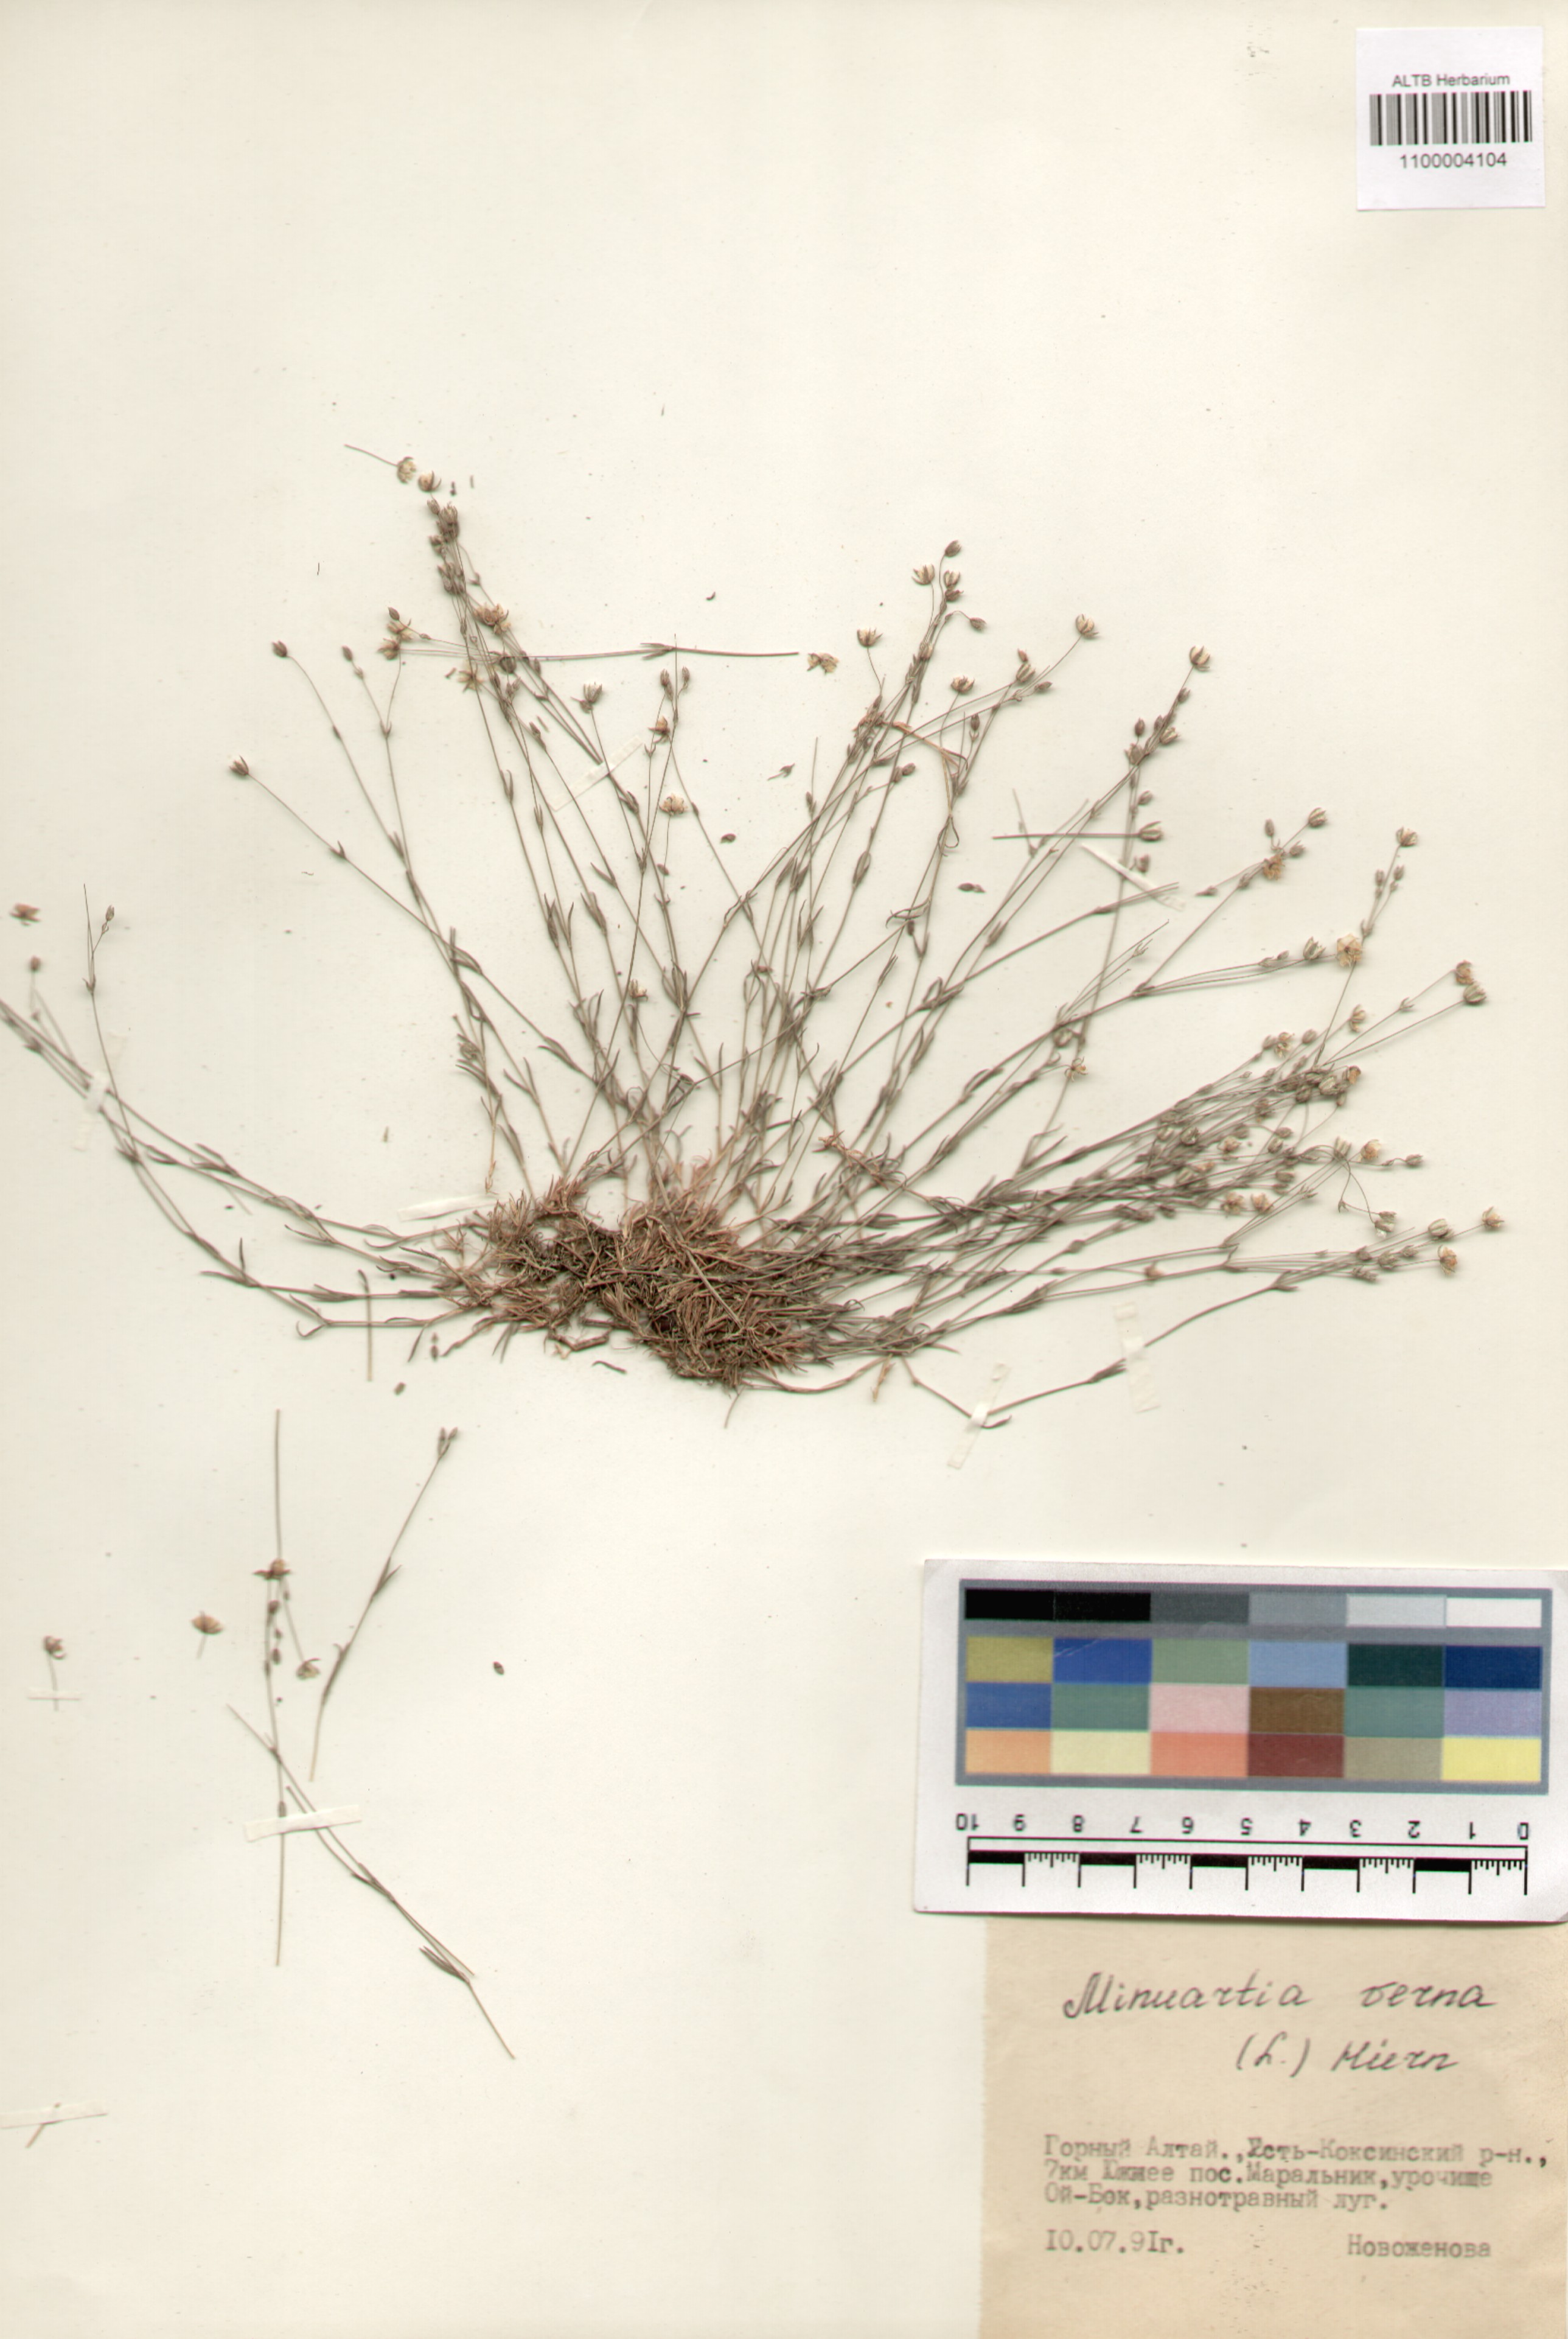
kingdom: Plantae
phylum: Tracheophyta
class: Magnoliopsida
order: Caryophyllales
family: Caryophyllaceae
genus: Sabulina
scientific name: Sabulina verna
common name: Spring sandwort
